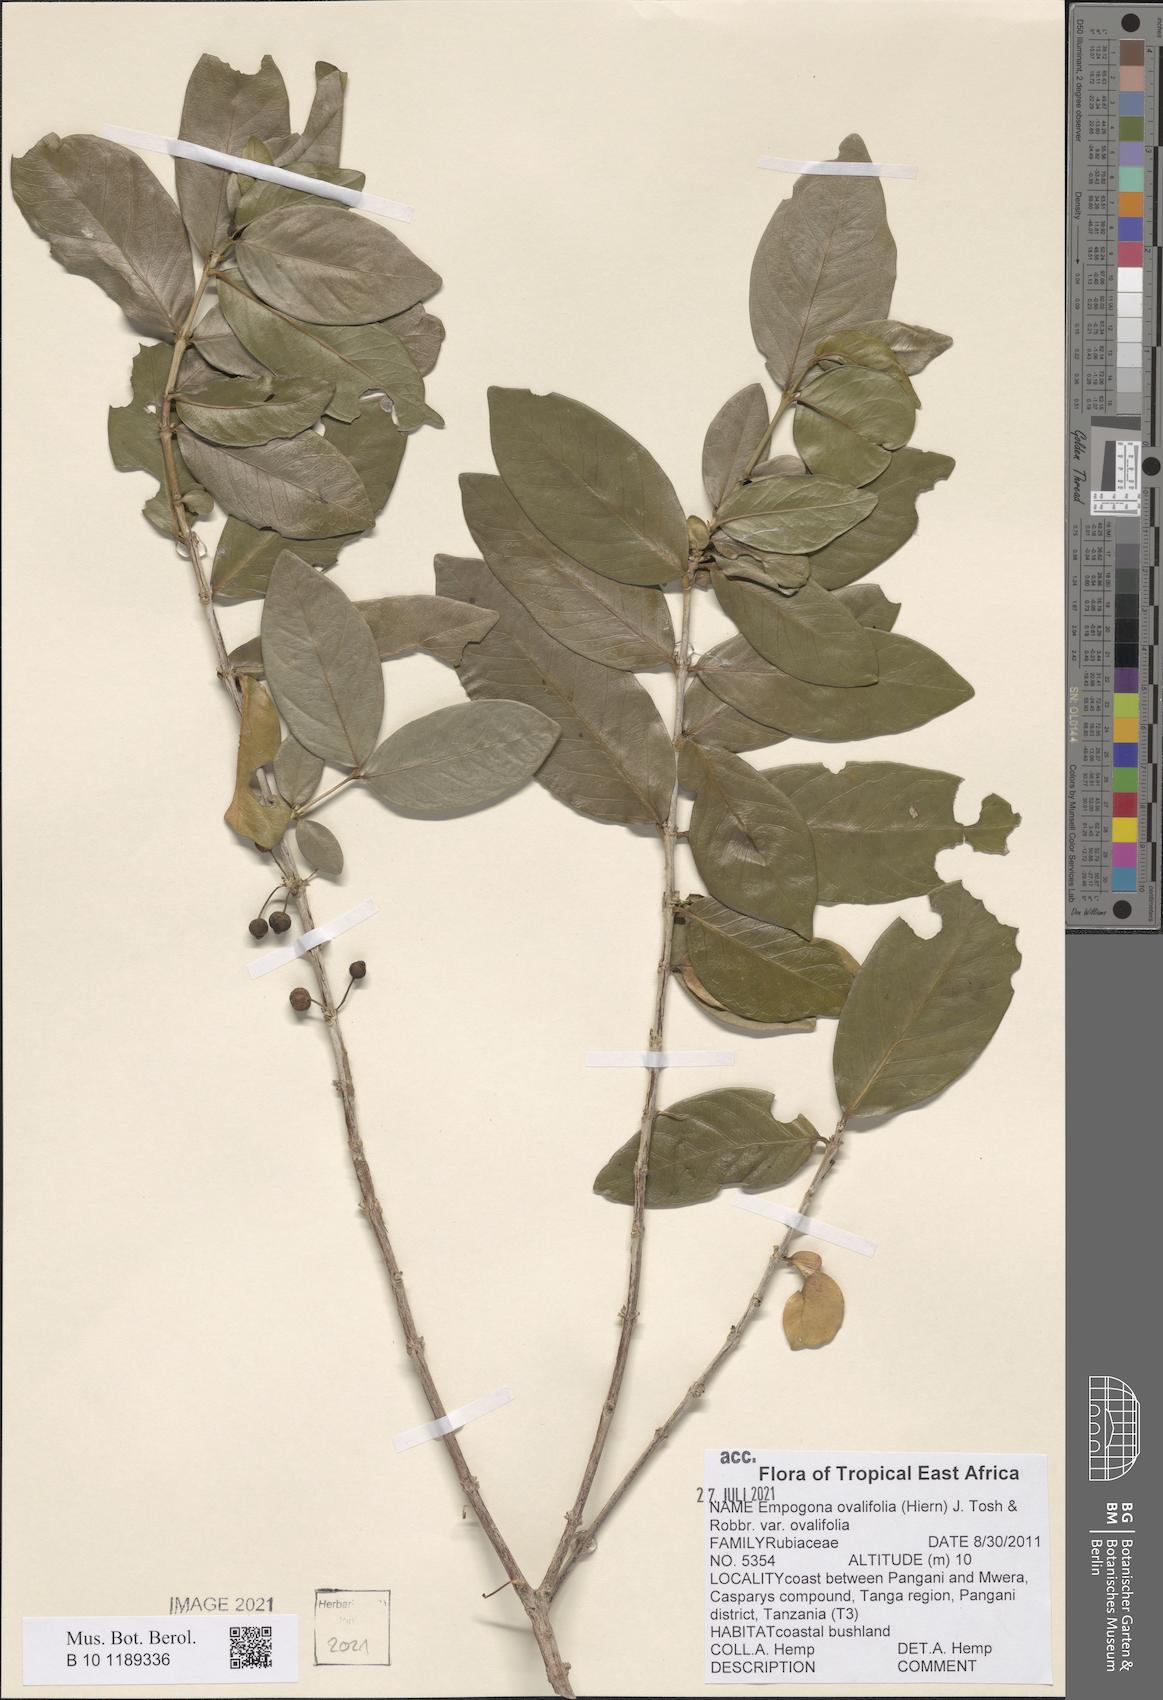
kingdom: Plantae
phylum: Tracheophyta
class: Magnoliopsida
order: Gentianales
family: Rubiaceae
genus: Empogona
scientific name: Empogona ovalifolia
